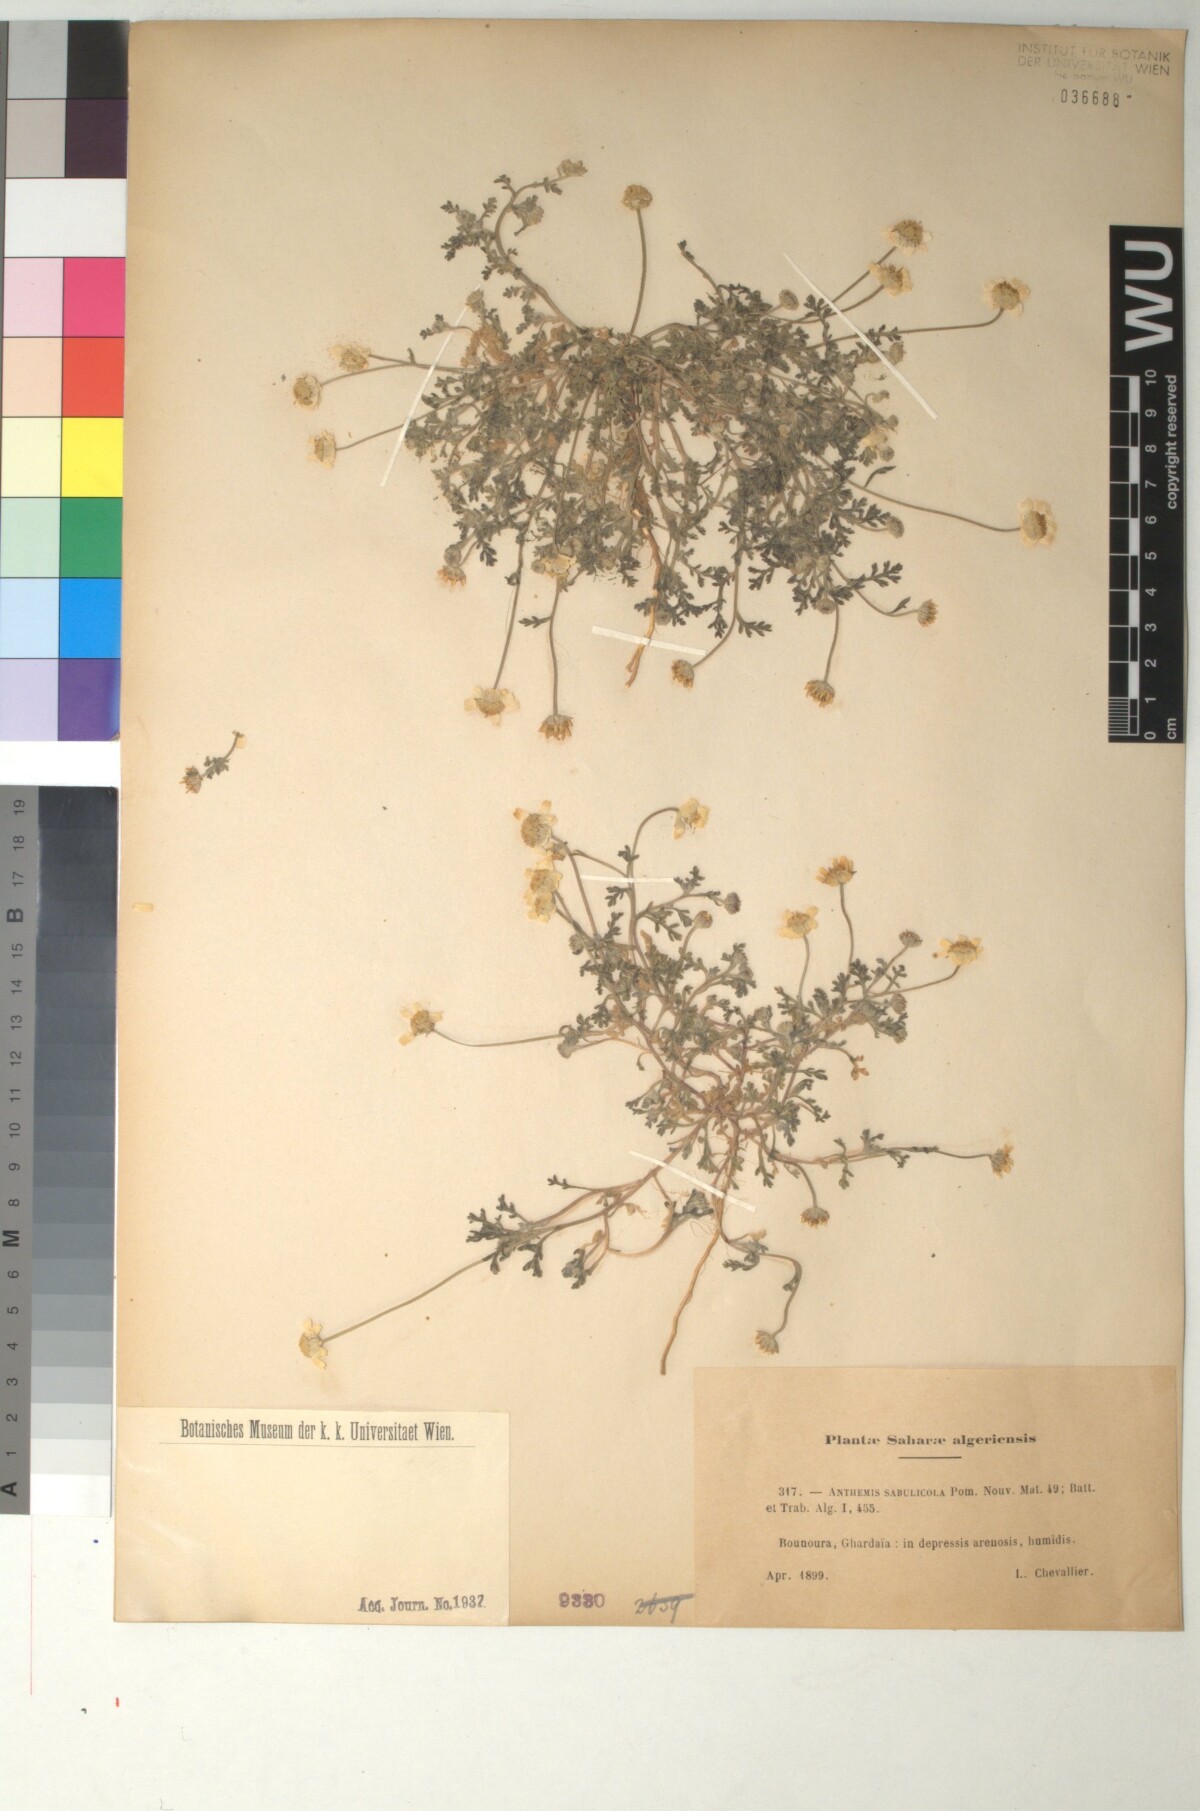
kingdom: Plantae
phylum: Tracheophyta
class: Magnoliopsida
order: Asterales
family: Asteraceae
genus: Anthemis
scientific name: Anthemis stiparum
